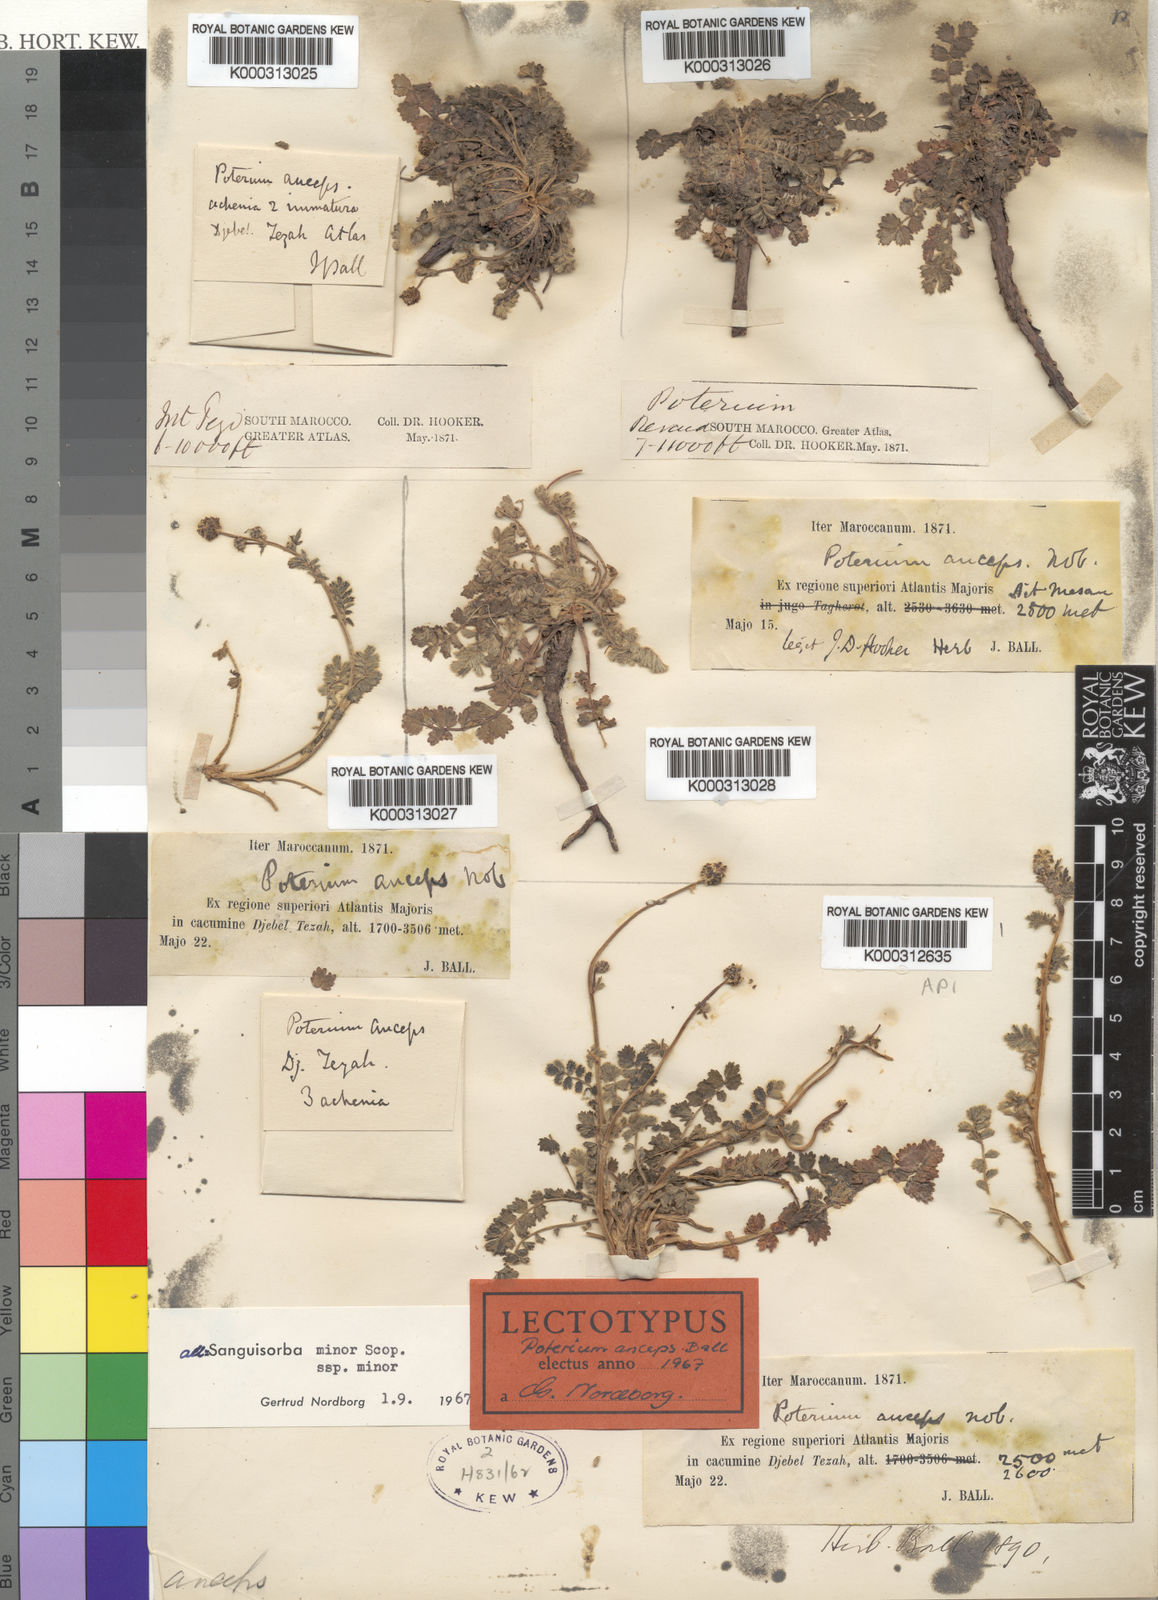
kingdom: Plantae
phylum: Tracheophyta
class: Magnoliopsida
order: Rosales
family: Rosaceae
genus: Poterium
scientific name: Poterium sanguisorba
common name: Salad burnet
